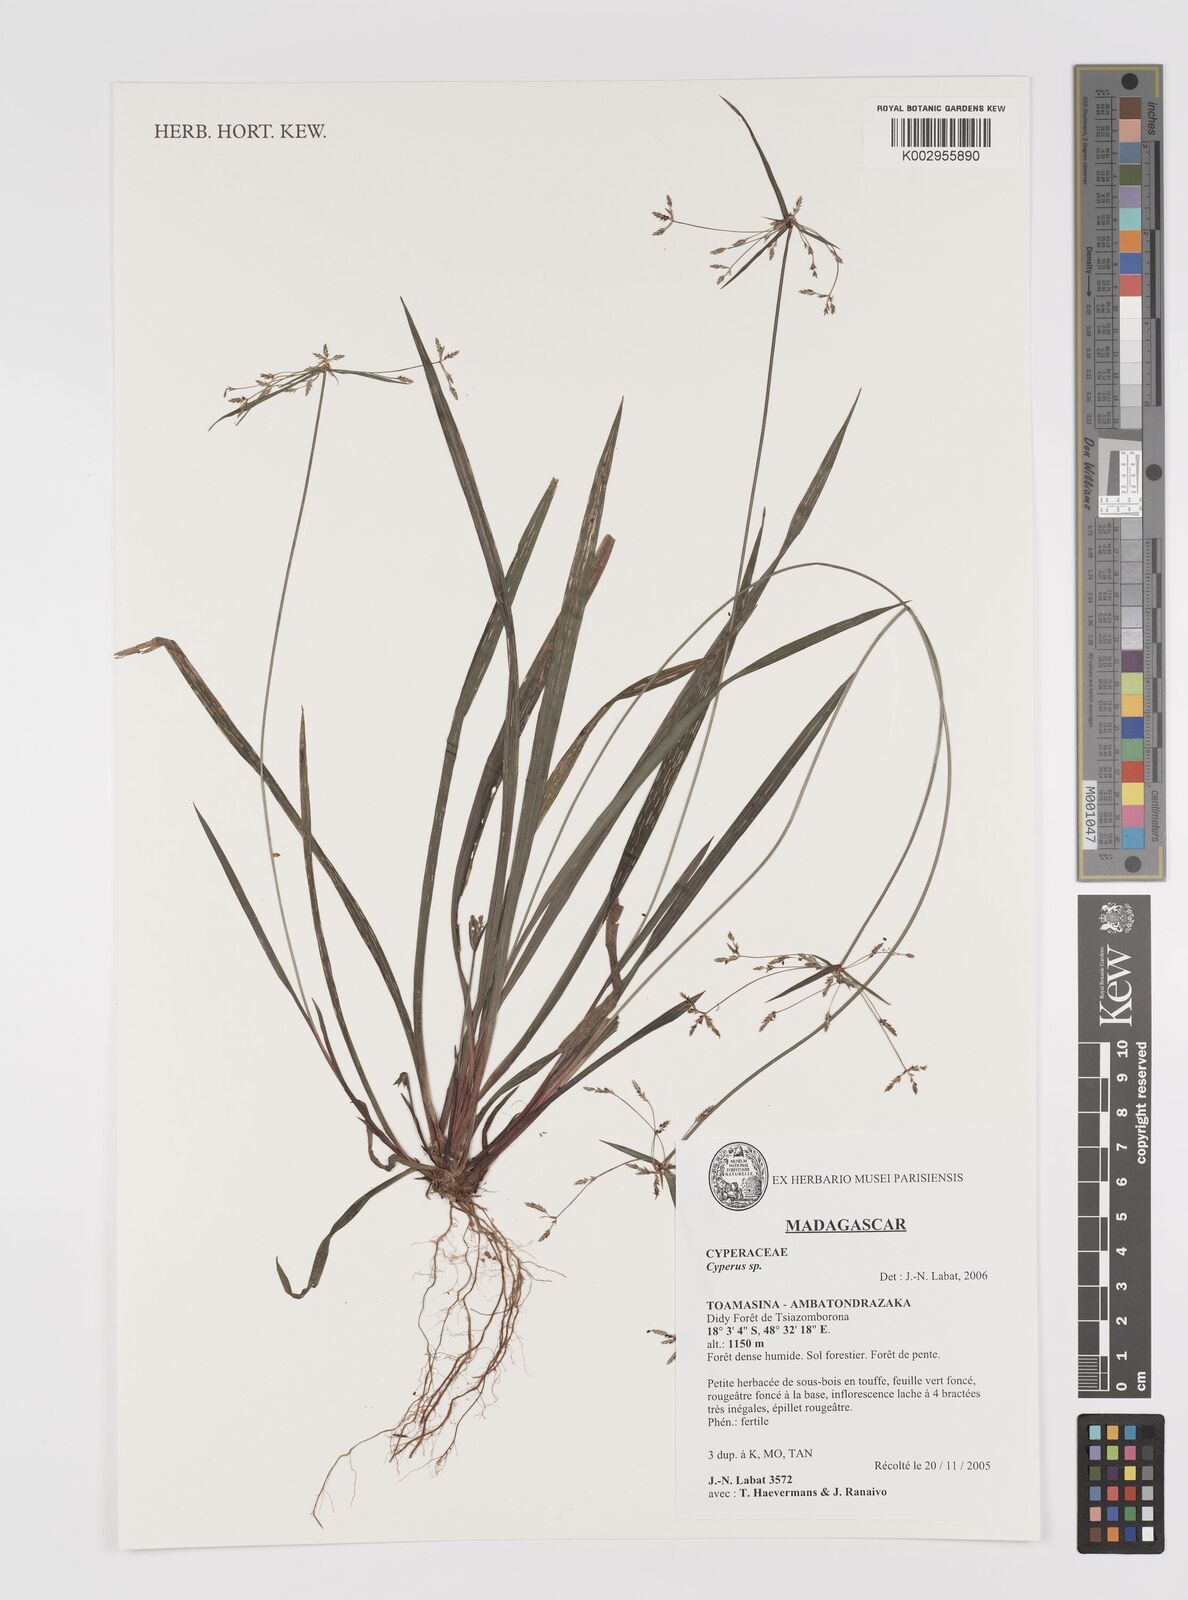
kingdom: Plantae
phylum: Tracheophyta
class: Liliopsida
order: Poales
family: Cyperaceae
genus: Cyperus
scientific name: Cyperus
